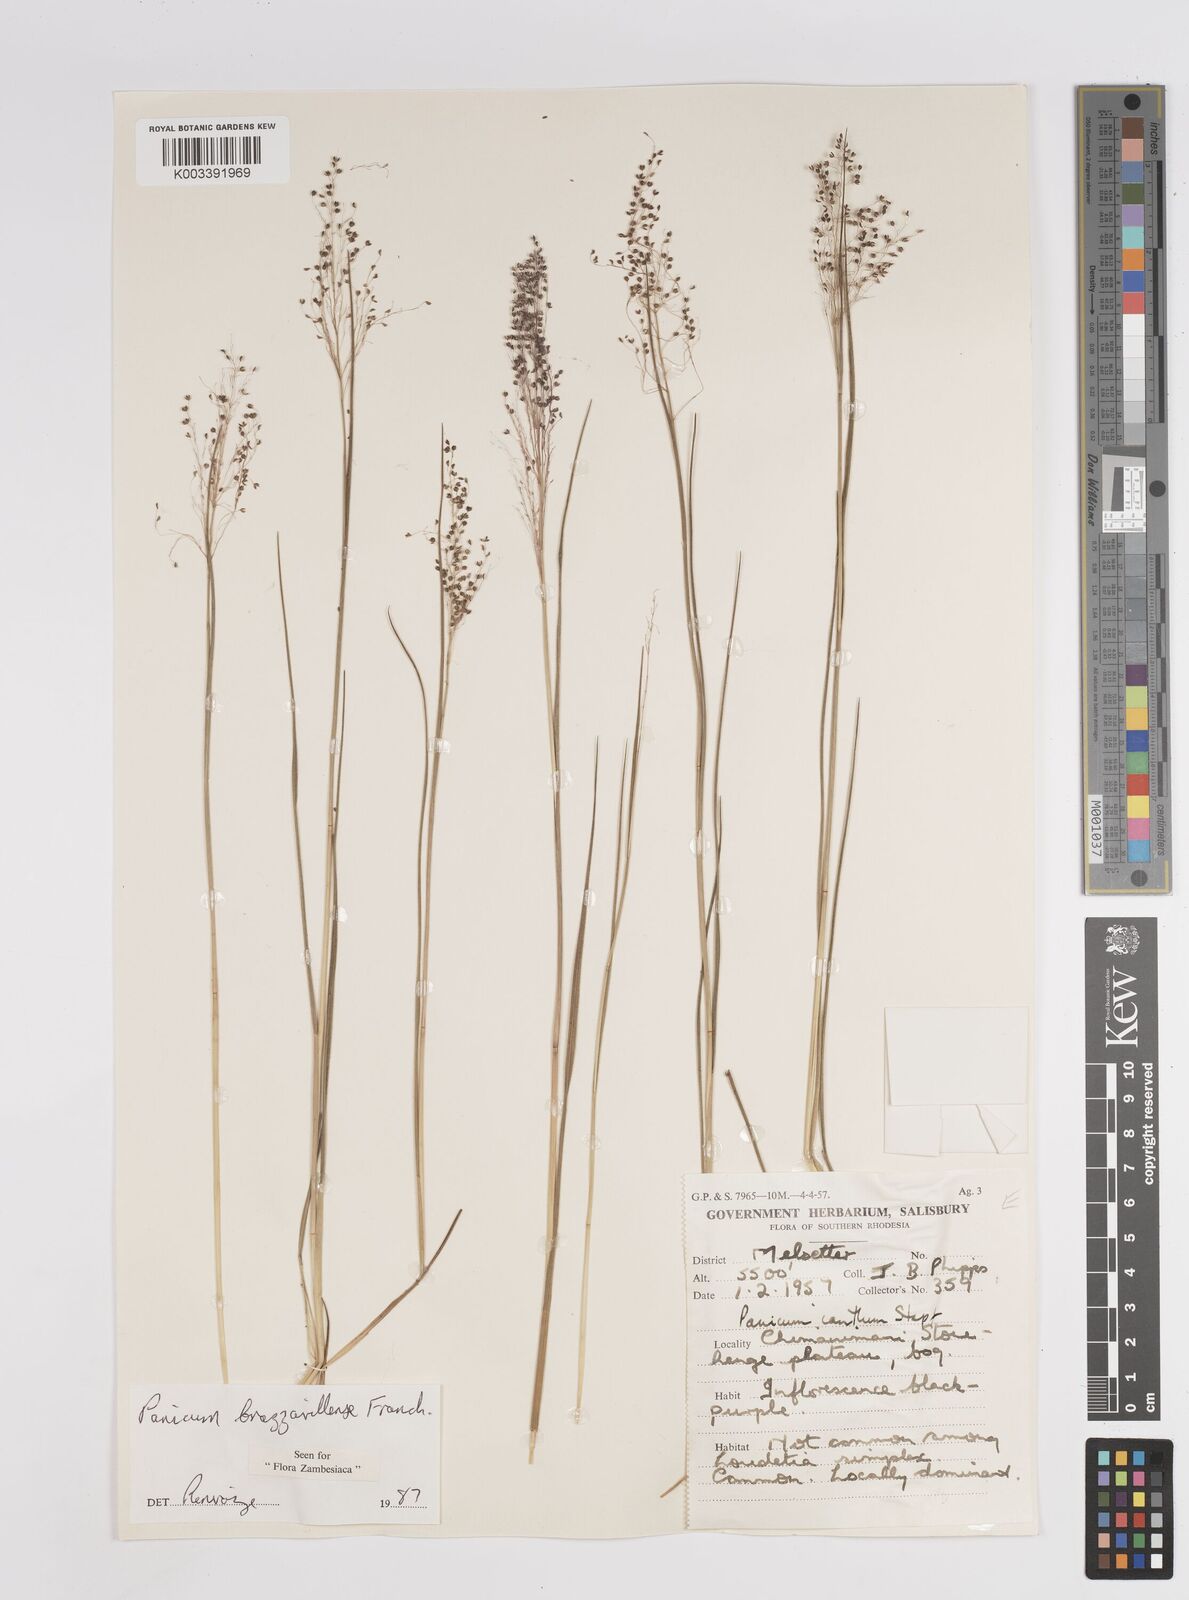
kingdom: Plantae
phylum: Tracheophyta
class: Liliopsida
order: Poales
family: Poaceae
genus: Trichanthecium
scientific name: Trichanthecium brazzavillense
